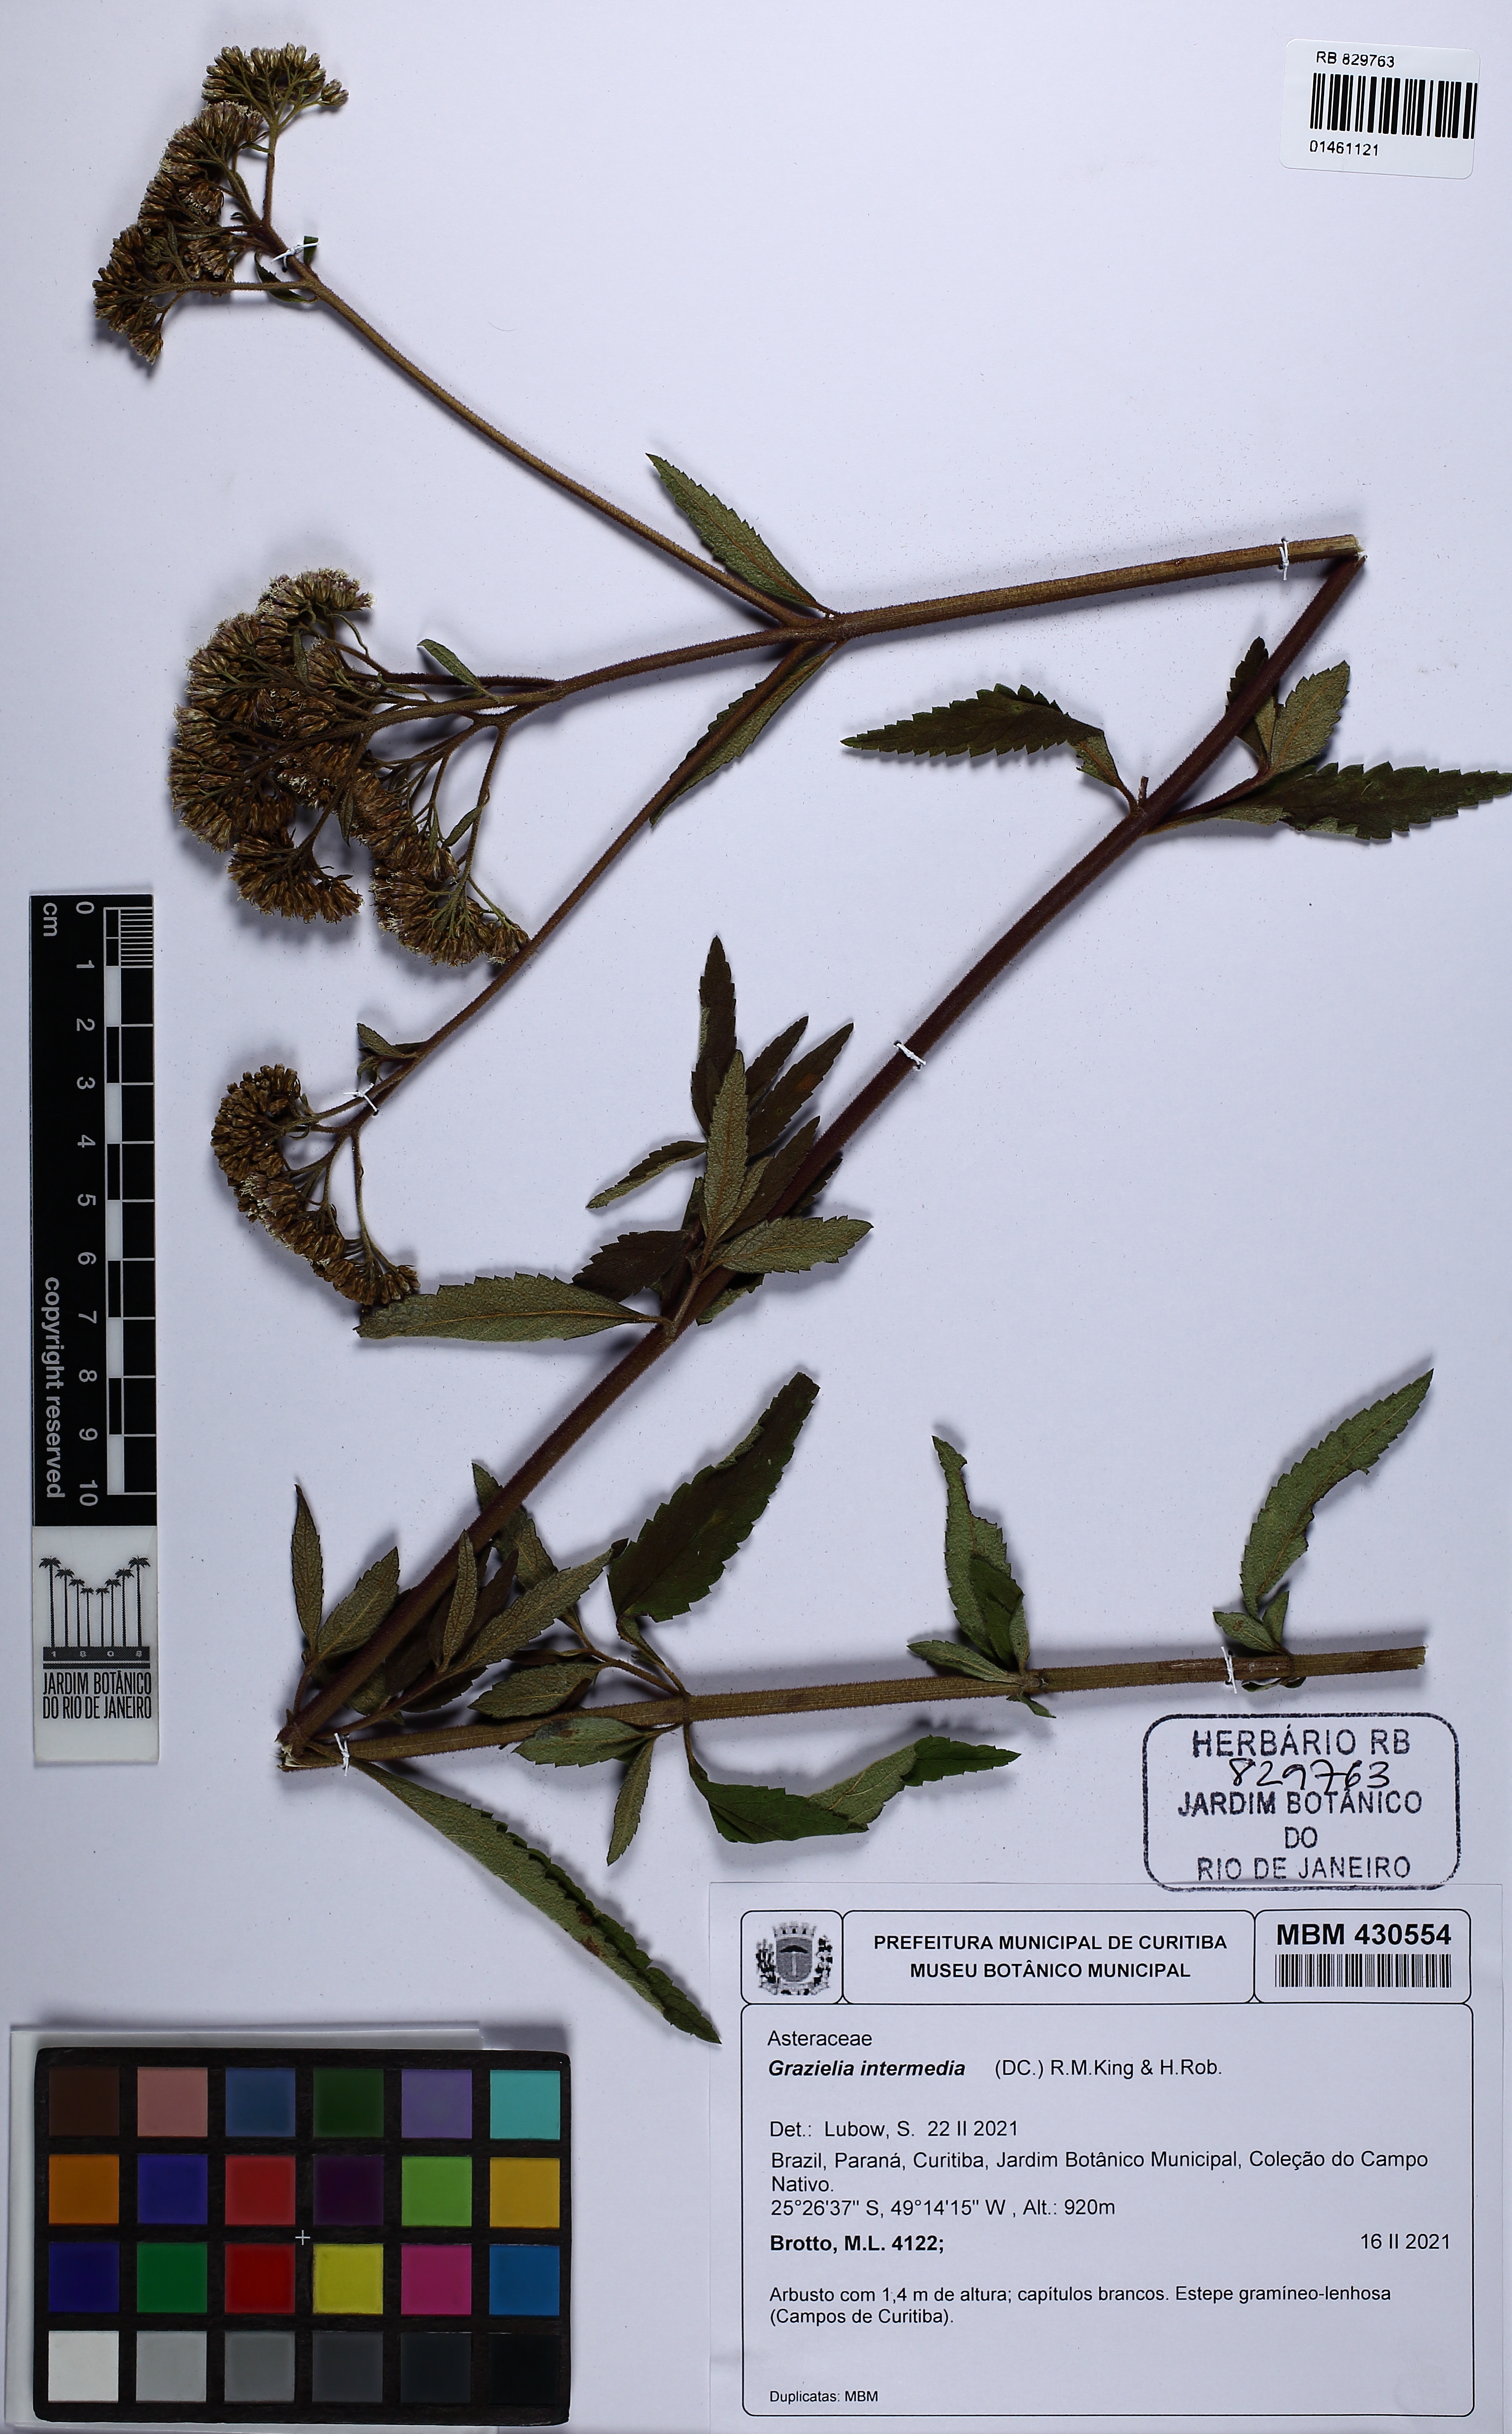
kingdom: Plantae
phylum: Tracheophyta
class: Magnoliopsida
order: Asterales
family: Asteraceae
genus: Grazielia
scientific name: Grazielia intermedia
